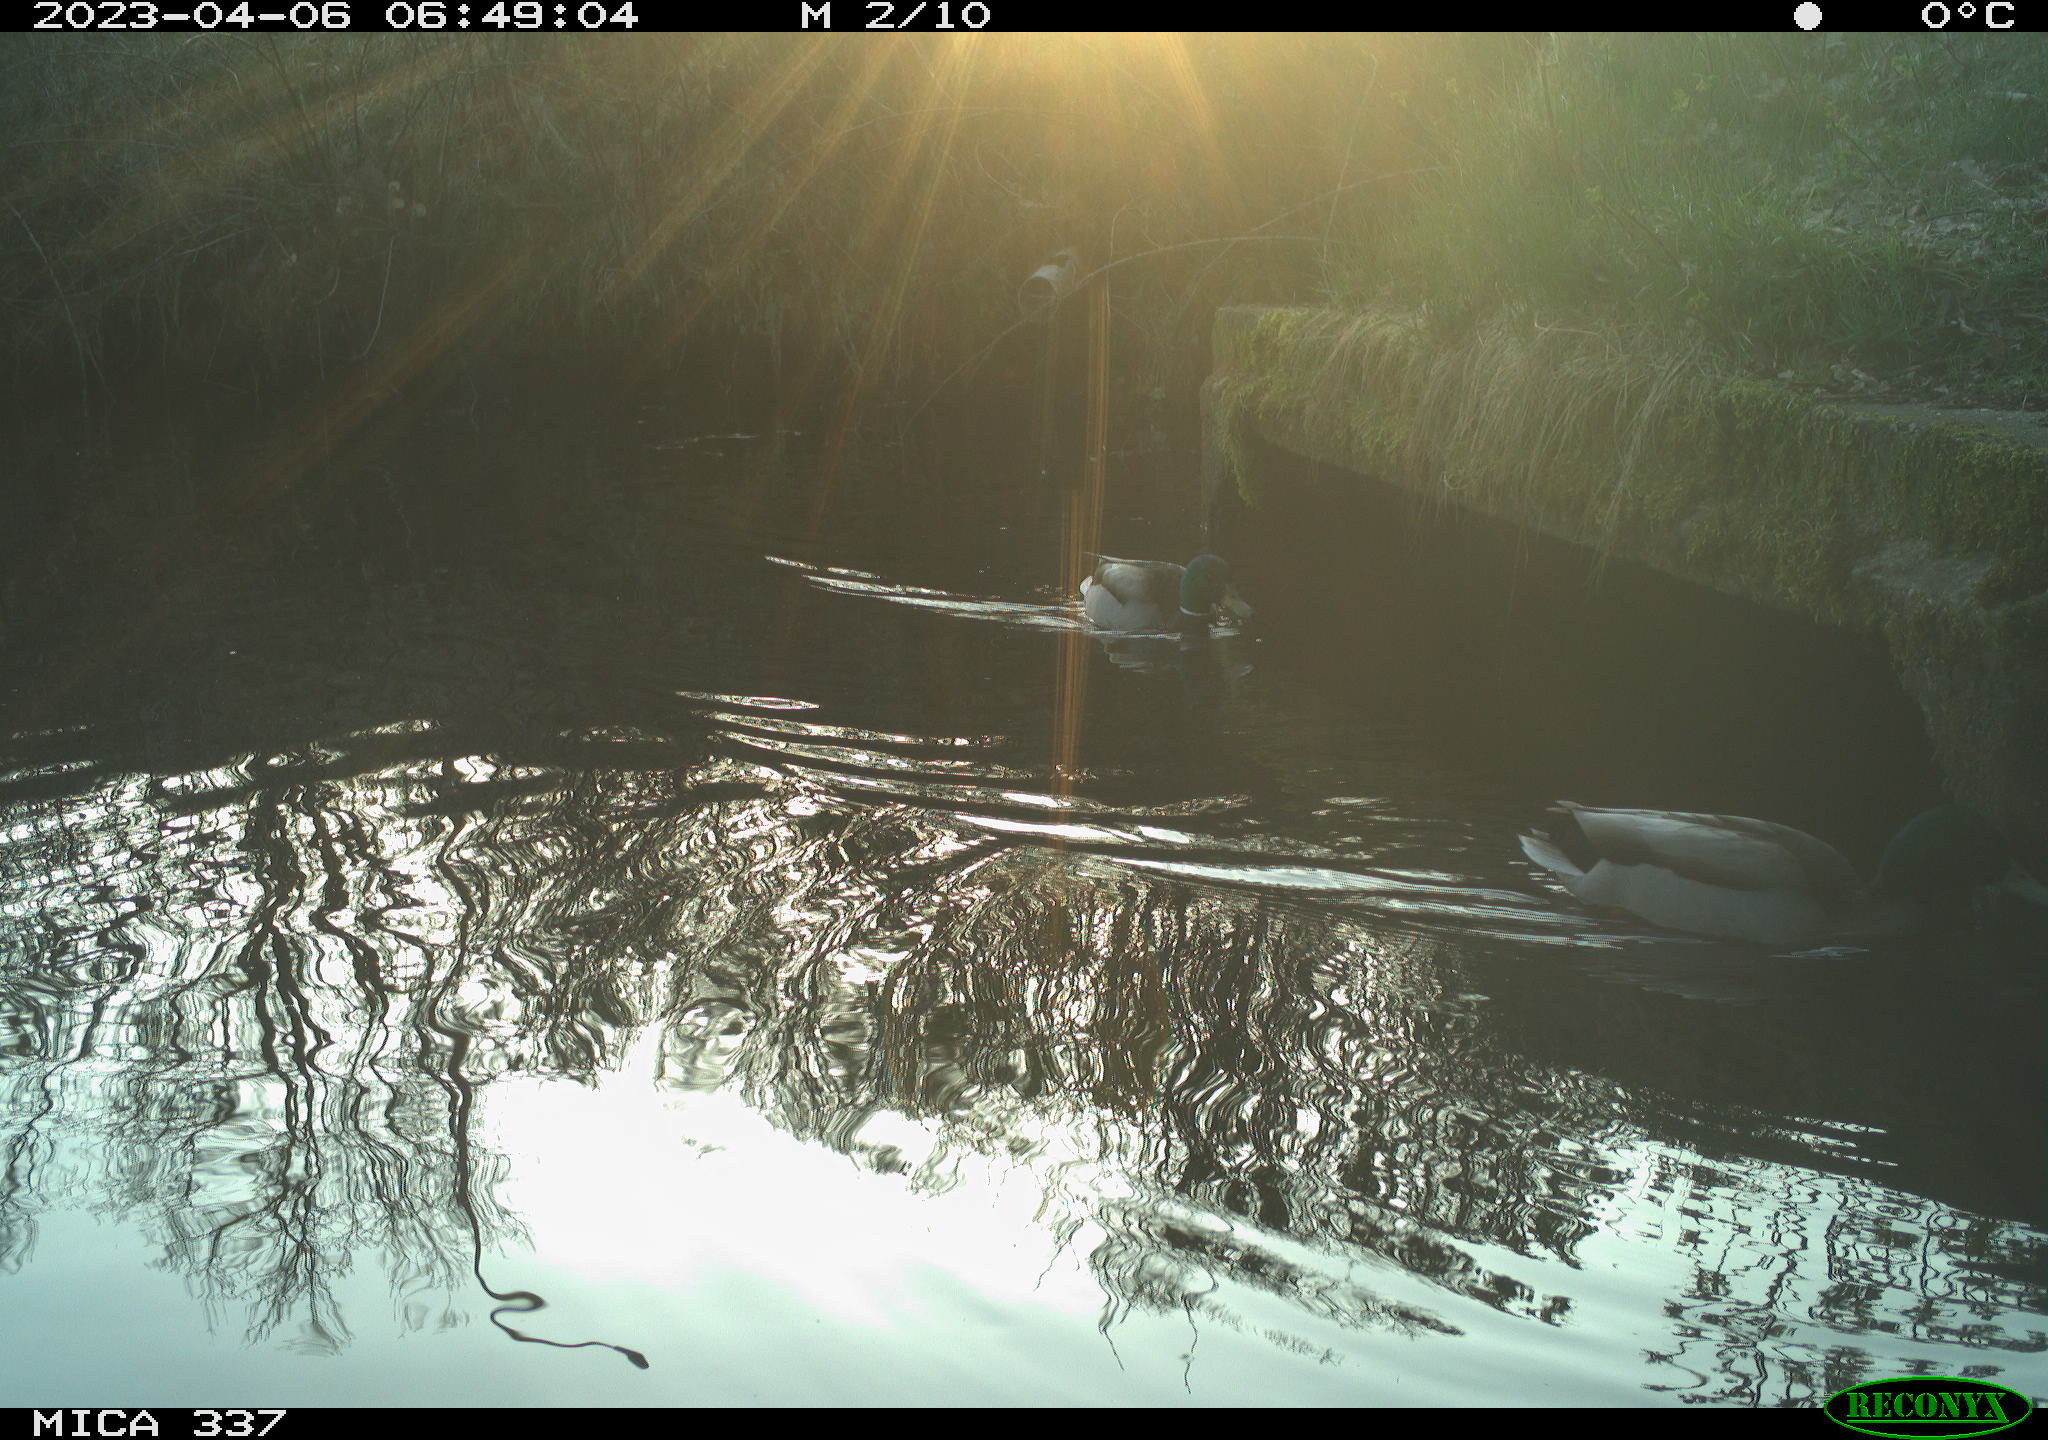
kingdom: Animalia
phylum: Chordata
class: Aves
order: Anseriformes
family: Anatidae
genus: Anas
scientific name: Anas platyrhynchos
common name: Mallard
